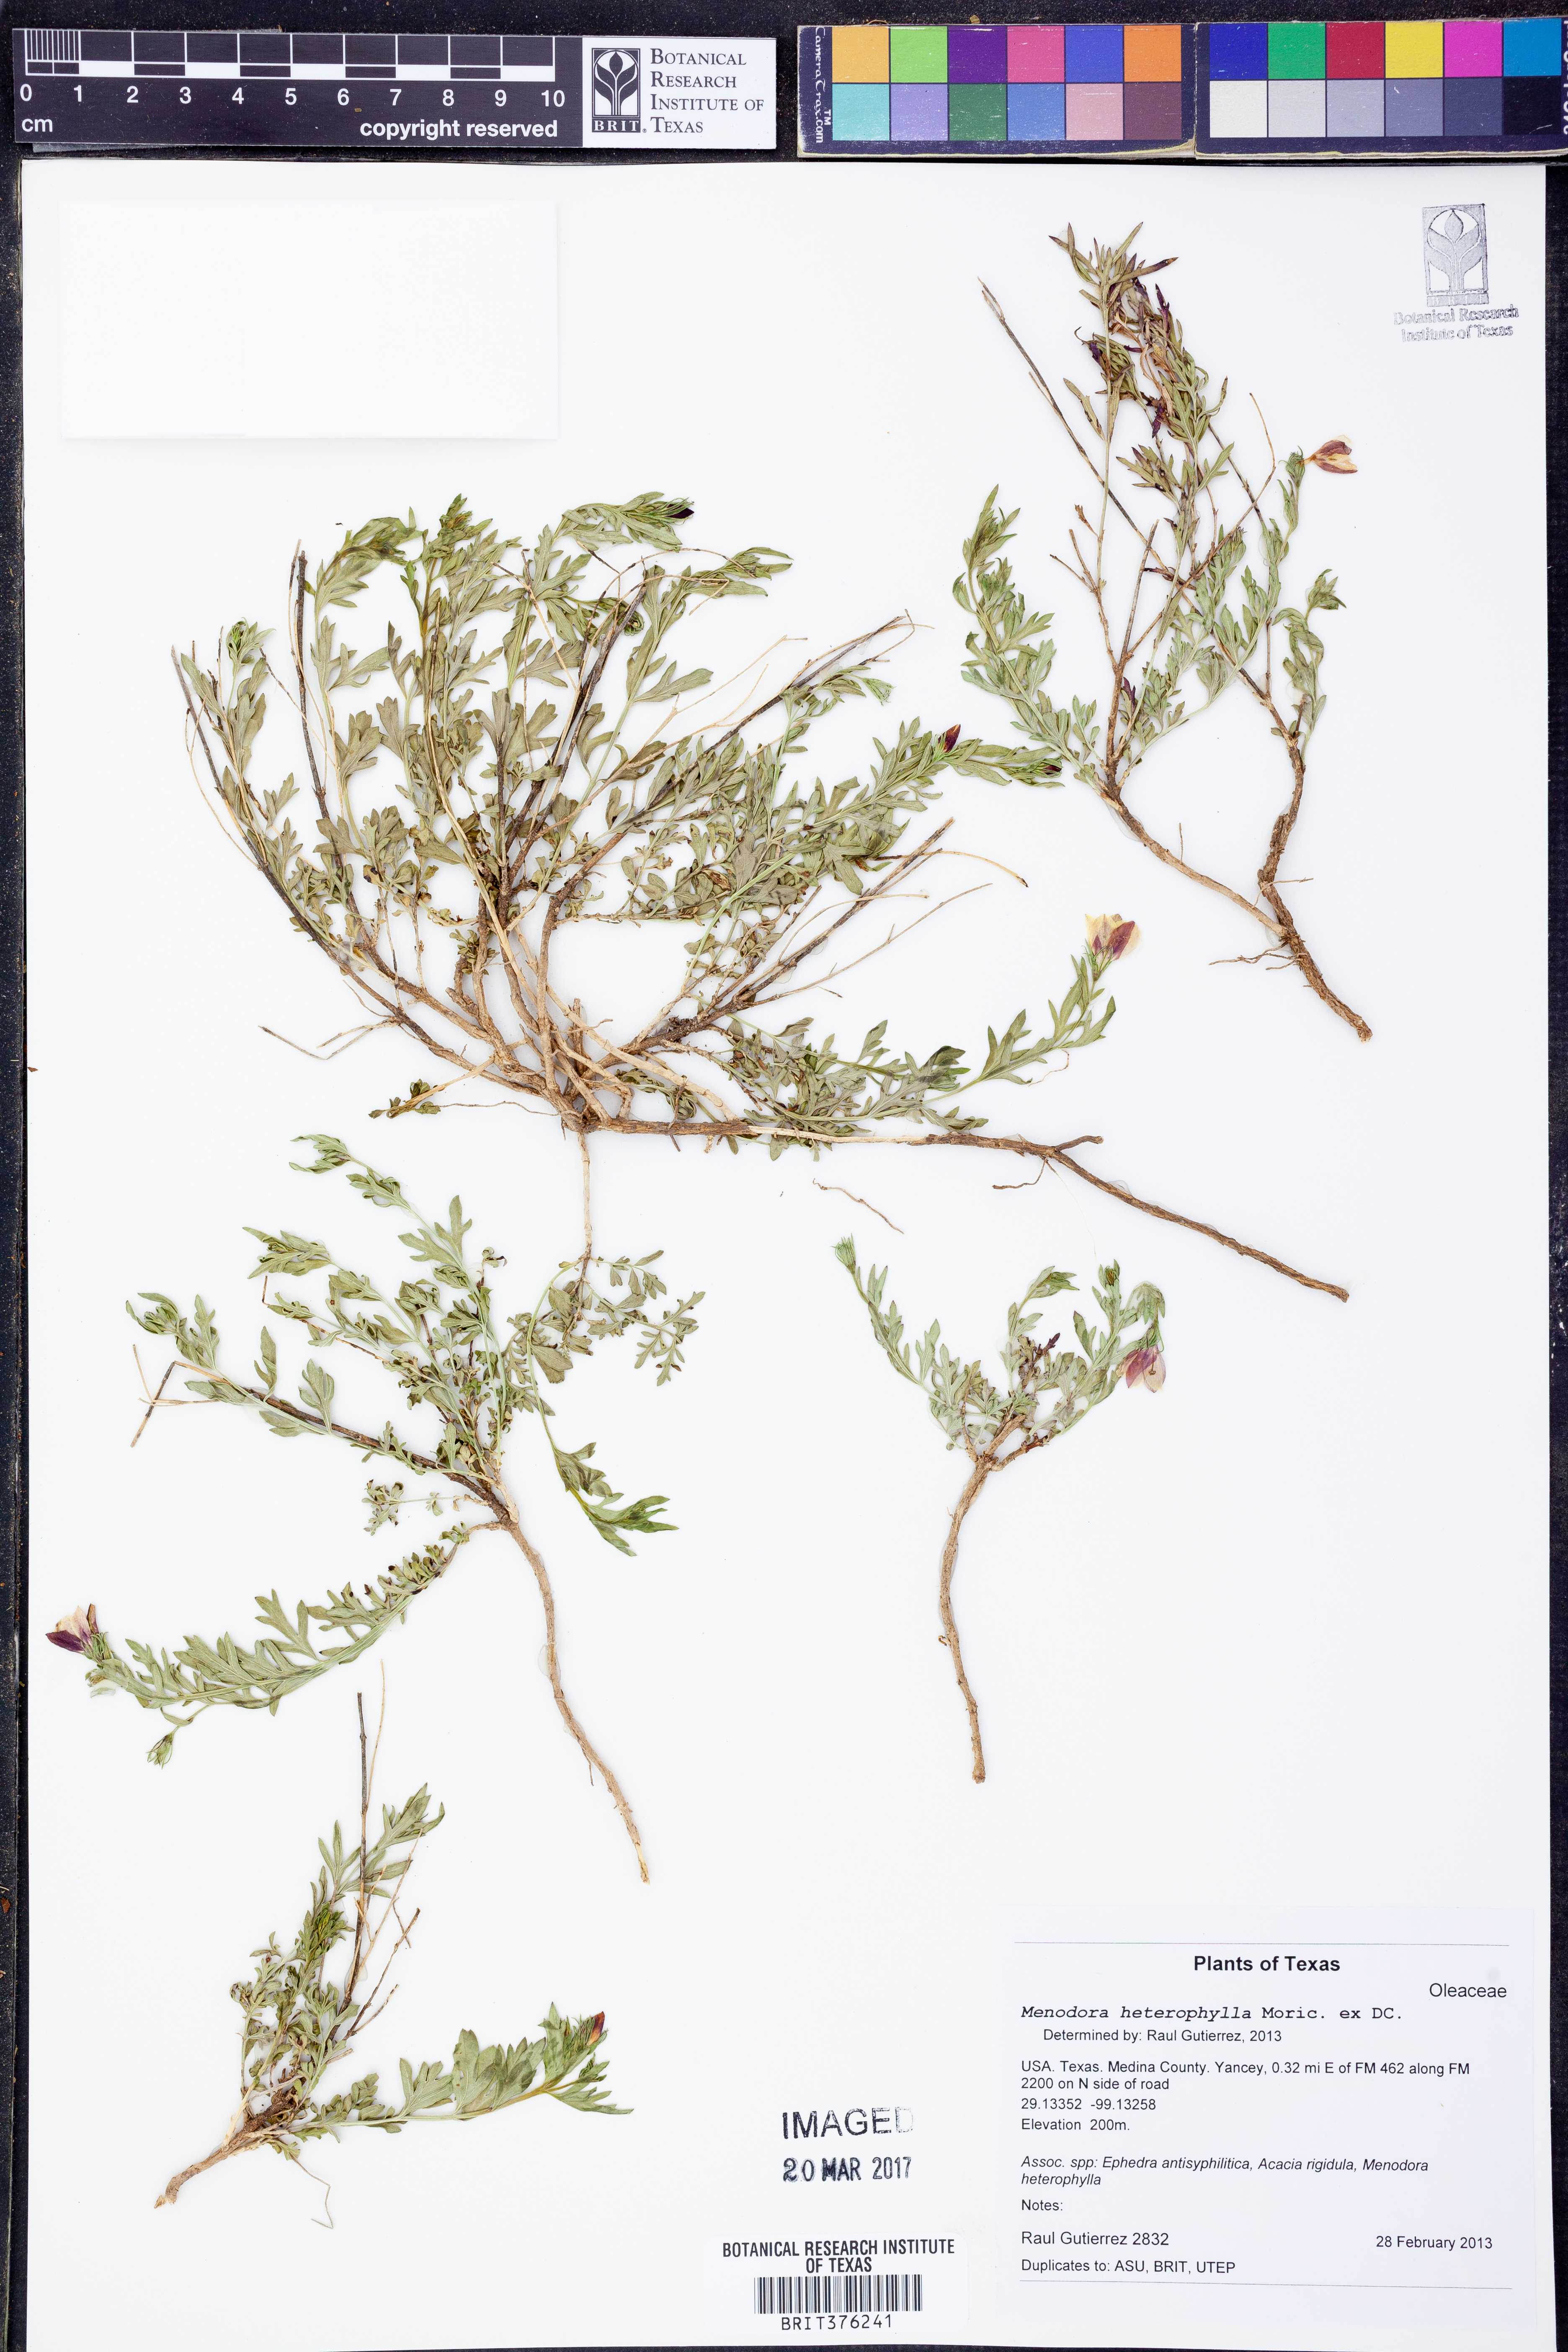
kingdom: Plantae
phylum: Tracheophyta
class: Magnoliopsida
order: Lamiales
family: Oleaceae
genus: Menodora
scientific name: Menodora heterophylla
